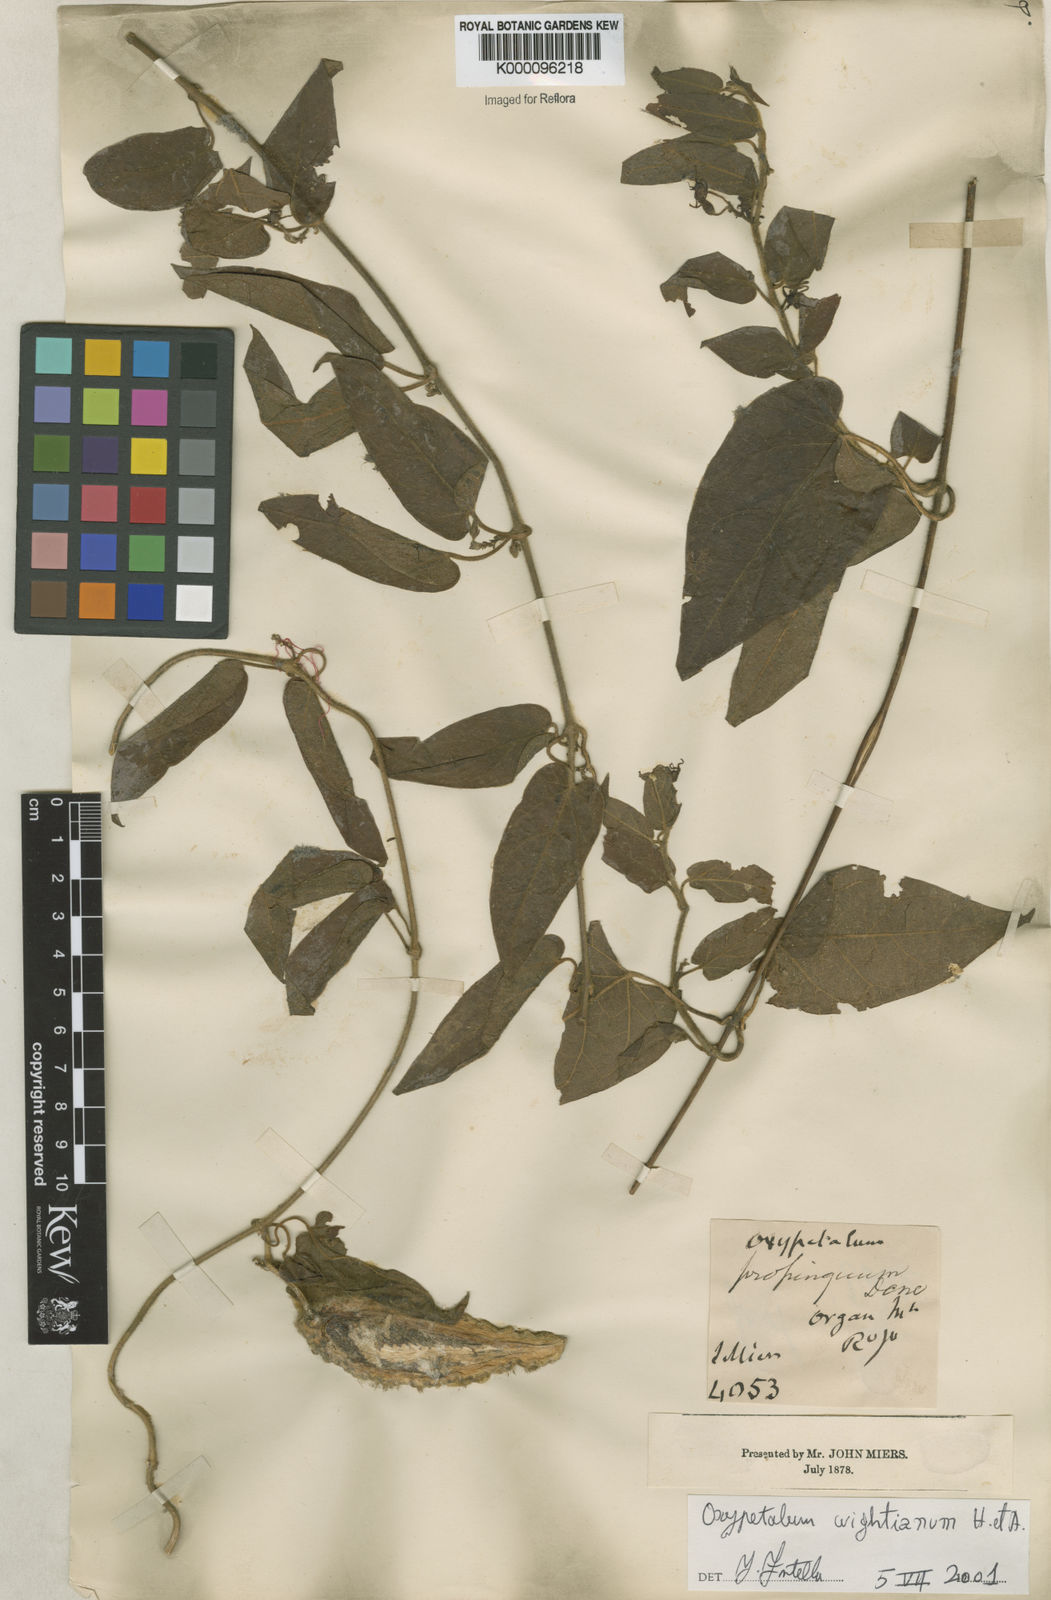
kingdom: Plantae
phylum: Tracheophyta
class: Magnoliopsida
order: Gentianales
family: Apocynaceae
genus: Oxypetalum
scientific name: Oxypetalum wightianum
